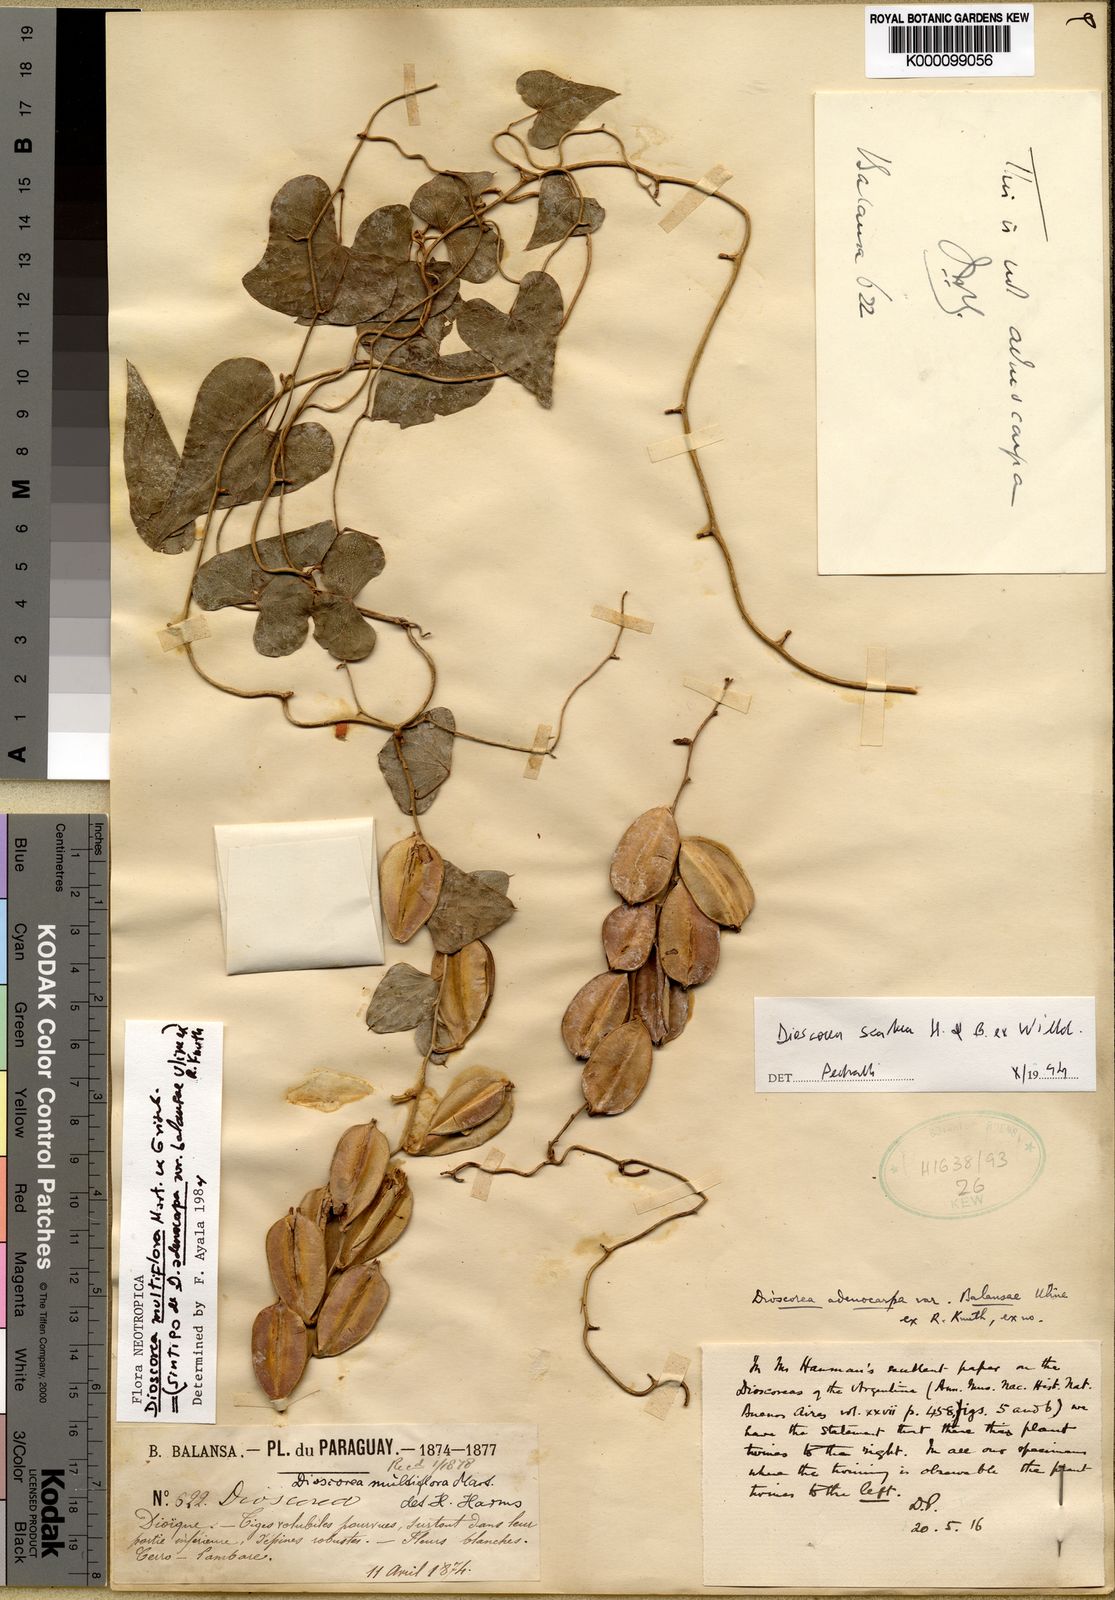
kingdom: Plantae
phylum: Tracheophyta
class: Liliopsida
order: Dioscoreales
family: Dioscoreaceae
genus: Dioscorea
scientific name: Dioscorea ovata
